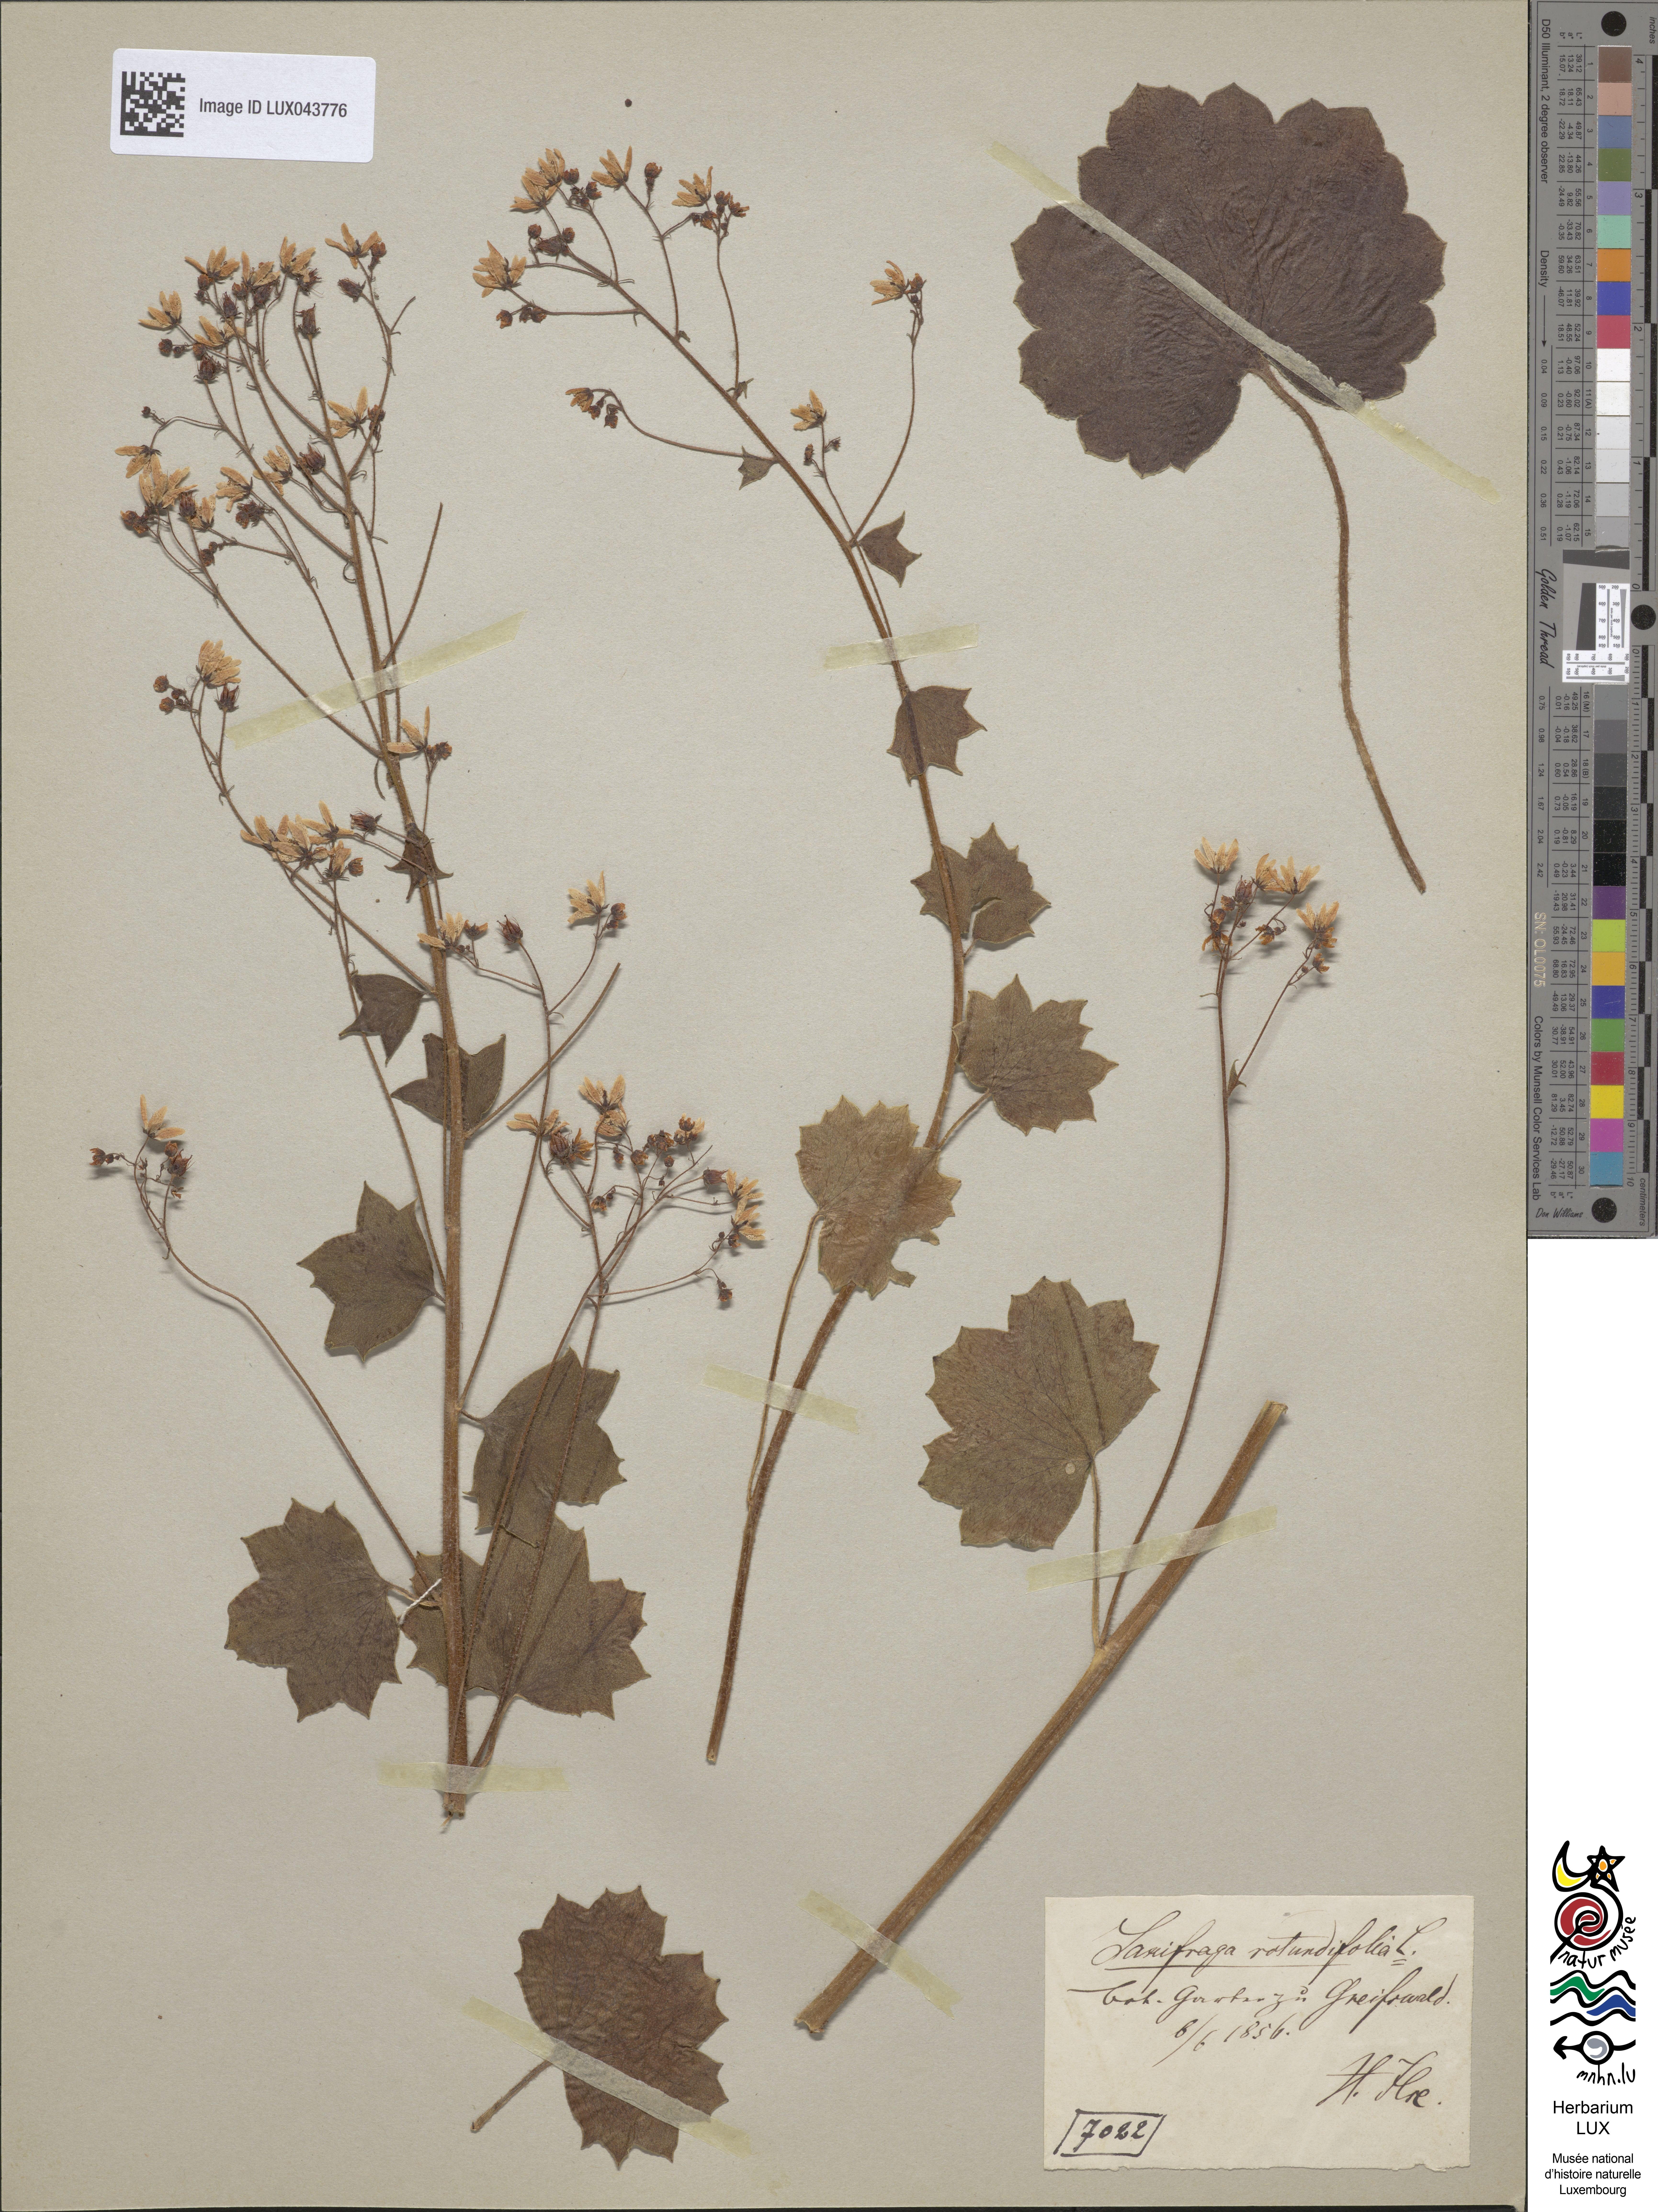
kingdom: Plantae
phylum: Tracheophyta
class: Magnoliopsida
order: Saxifragales
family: Saxifragaceae
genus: Saxifraga
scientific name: Saxifraga rotundifolia
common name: Round-leaved saxifrage
